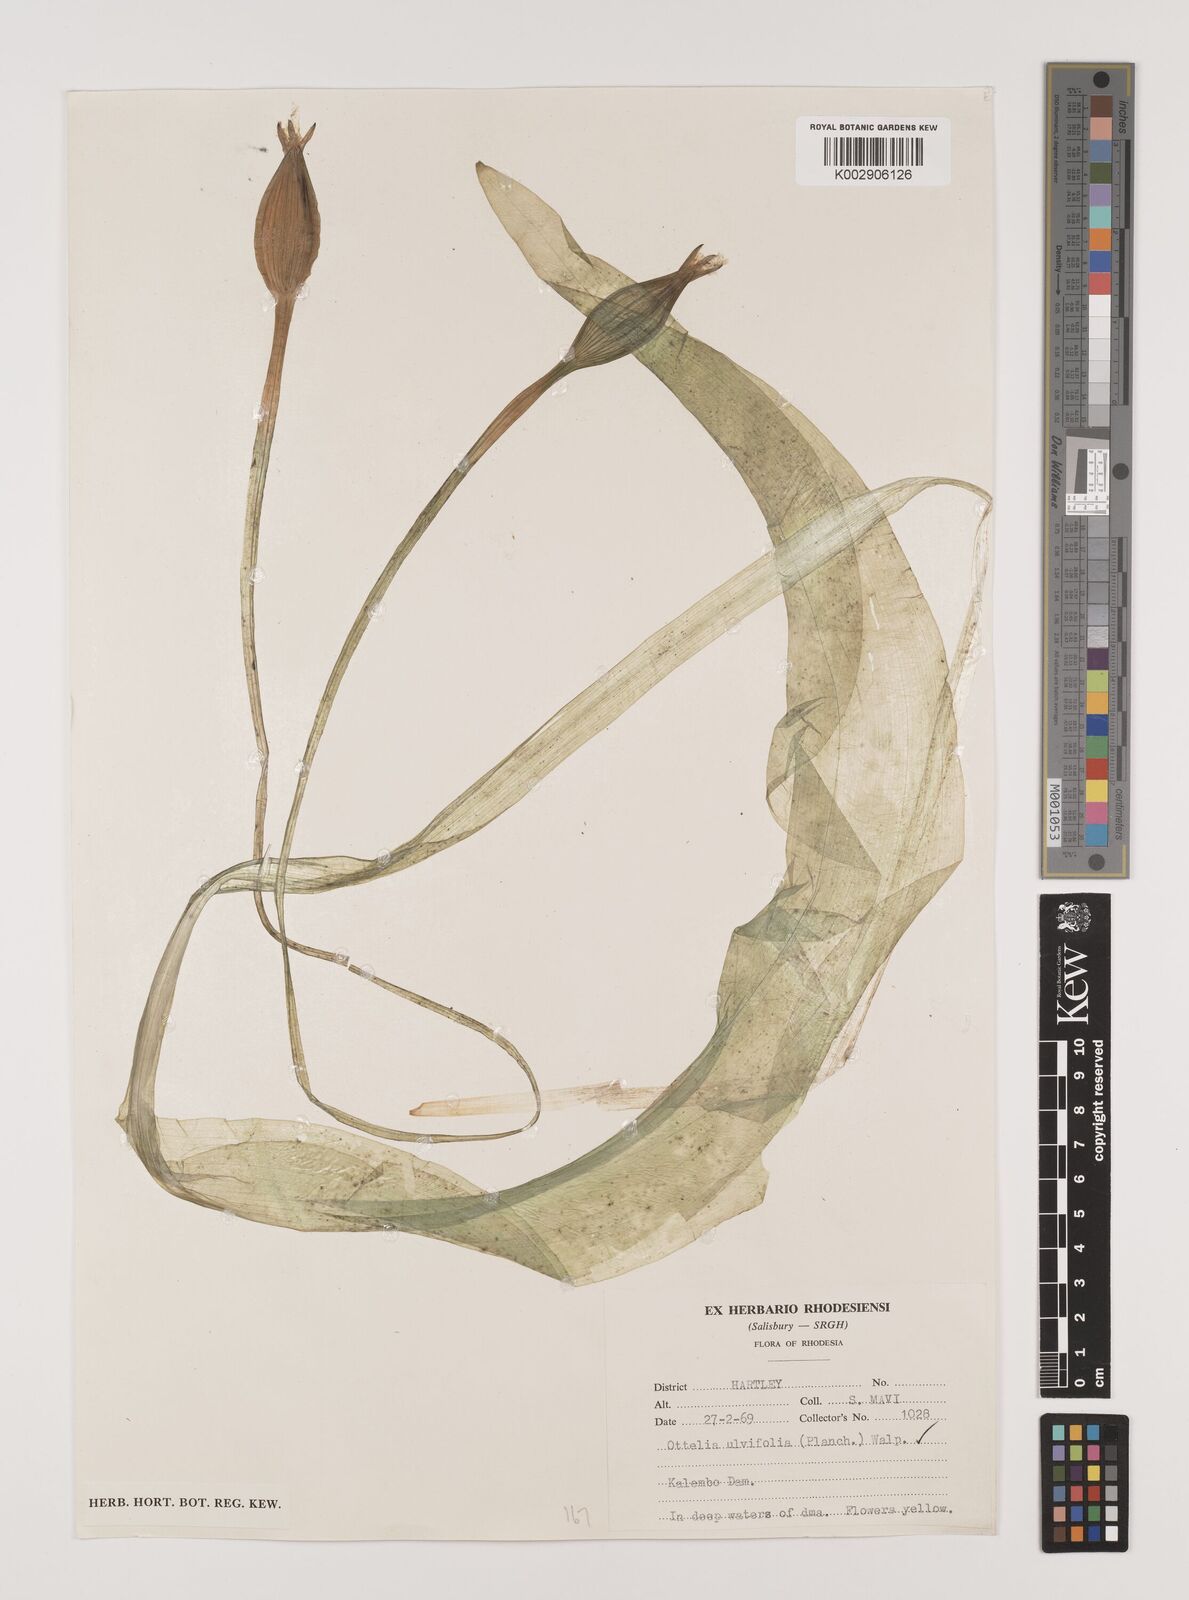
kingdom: Plantae
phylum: Tracheophyta
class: Liliopsida
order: Alismatales
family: Hydrocharitaceae
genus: Ottelia
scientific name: Ottelia ulvifolia
